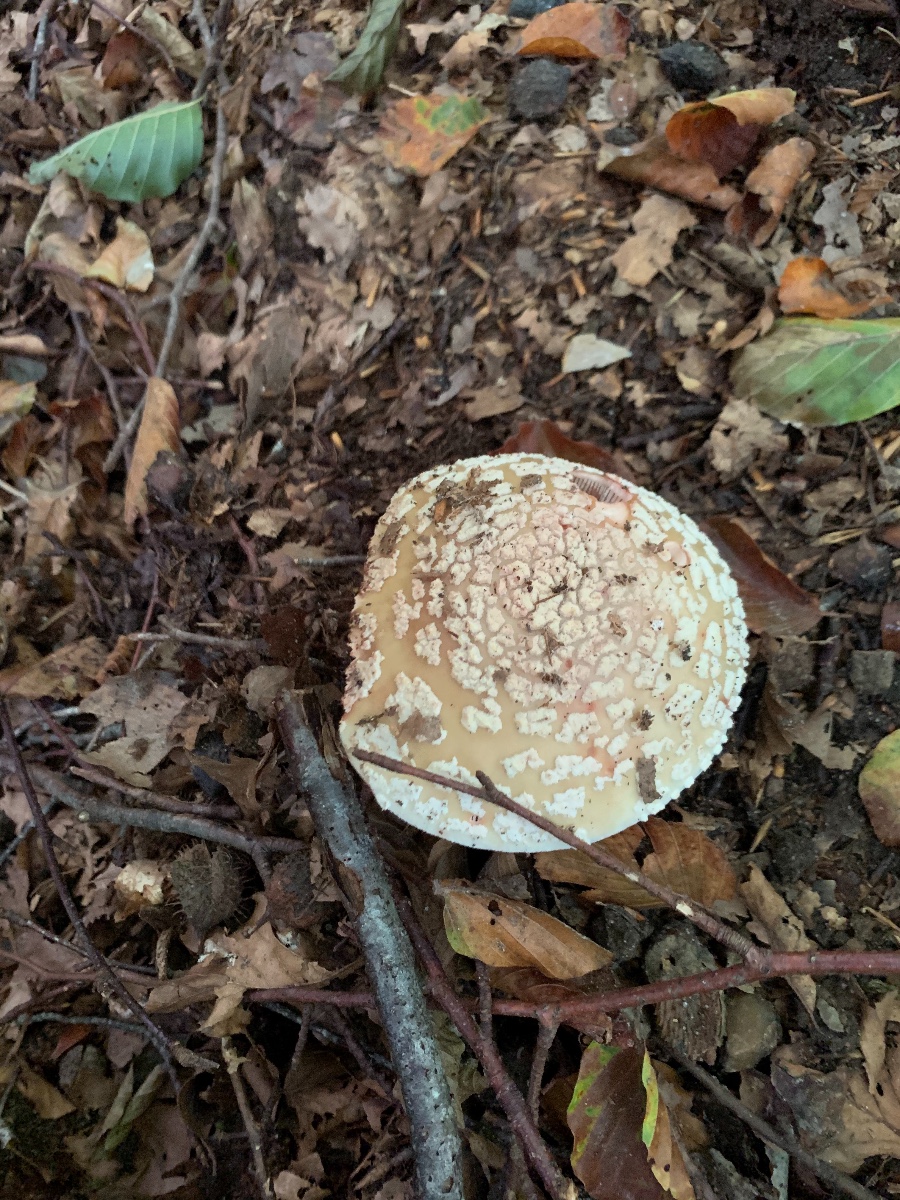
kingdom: Fungi
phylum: Basidiomycota
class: Agaricomycetes
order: Agaricales
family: Amanitaceae
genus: Amanita
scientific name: Amanita rubescens
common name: rødmende fluesvamp
